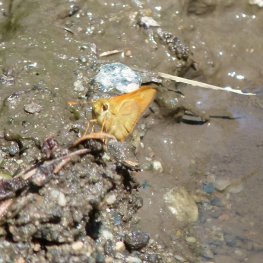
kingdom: Animalia
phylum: Arthropoda
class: Insecta
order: Lepidoptera
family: Hesperiidae
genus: Ochlodes
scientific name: Ochlodes sylvanoides
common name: Woodland Skipper
